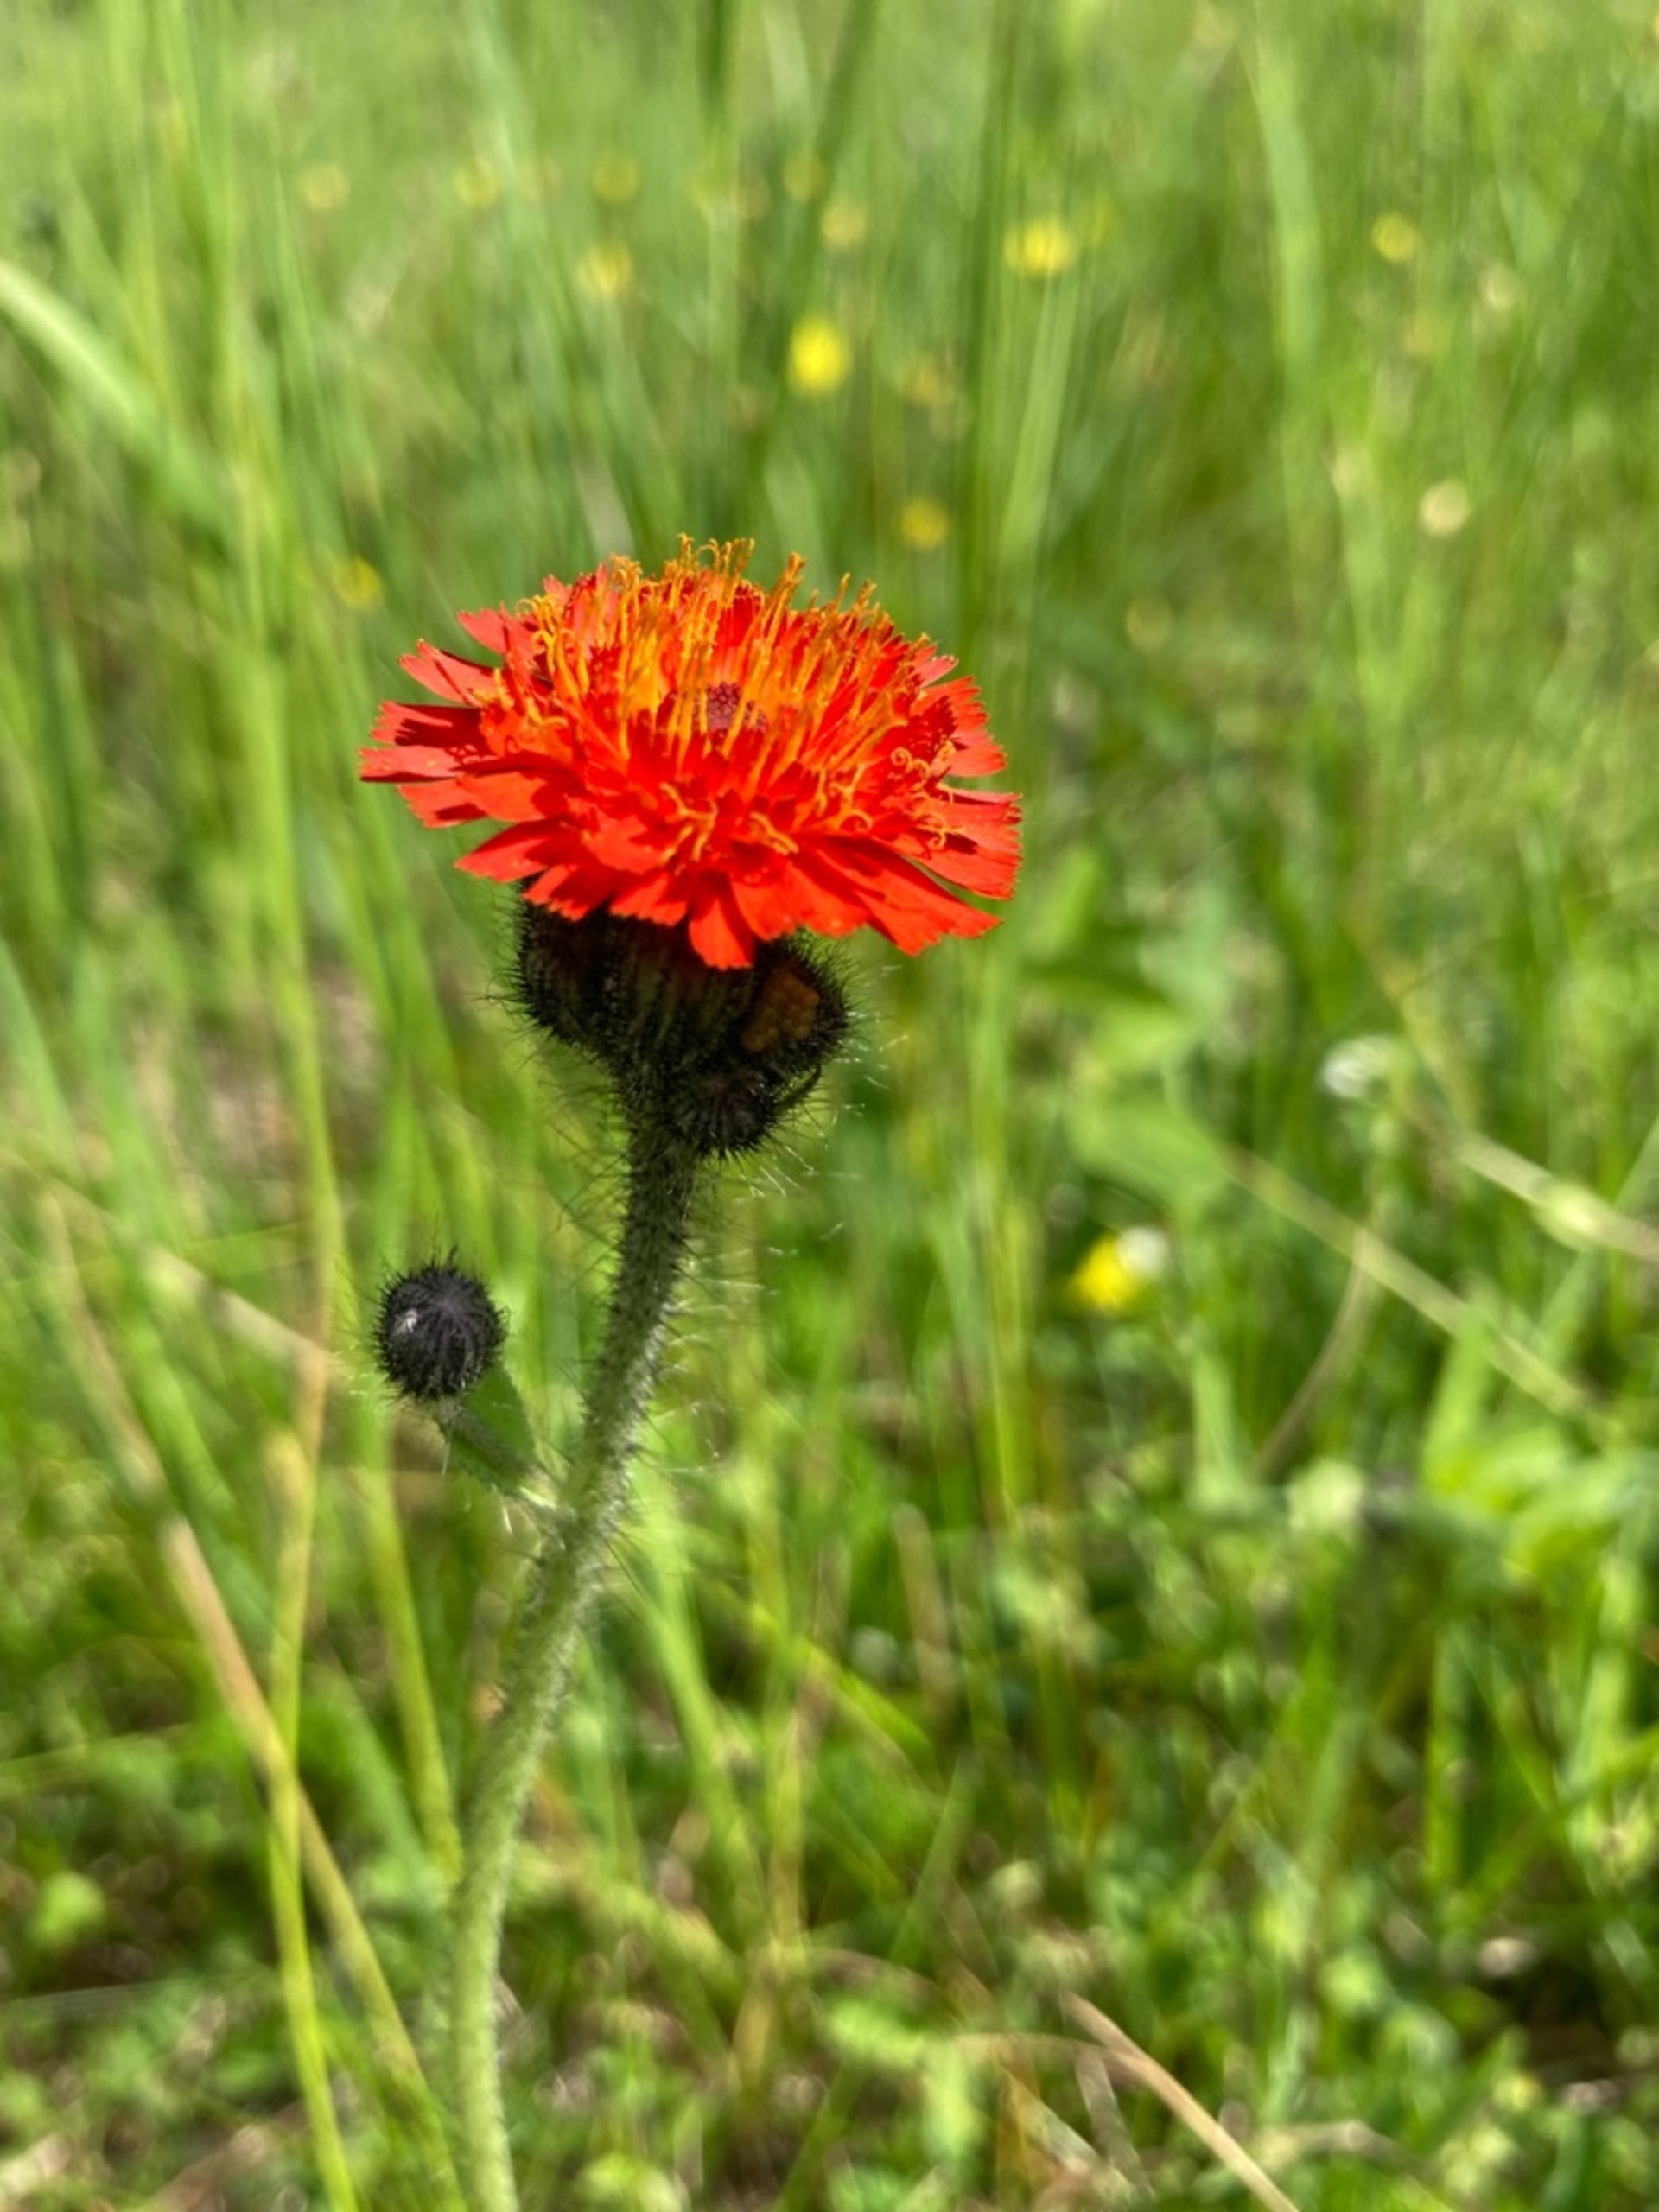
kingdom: Plantae
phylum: Tracheophyta
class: Magnoliopsida
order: Asterales
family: Asteraceae
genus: Pilosella
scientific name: Pilosella aurantiaca
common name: Pomerans-høgeurt
